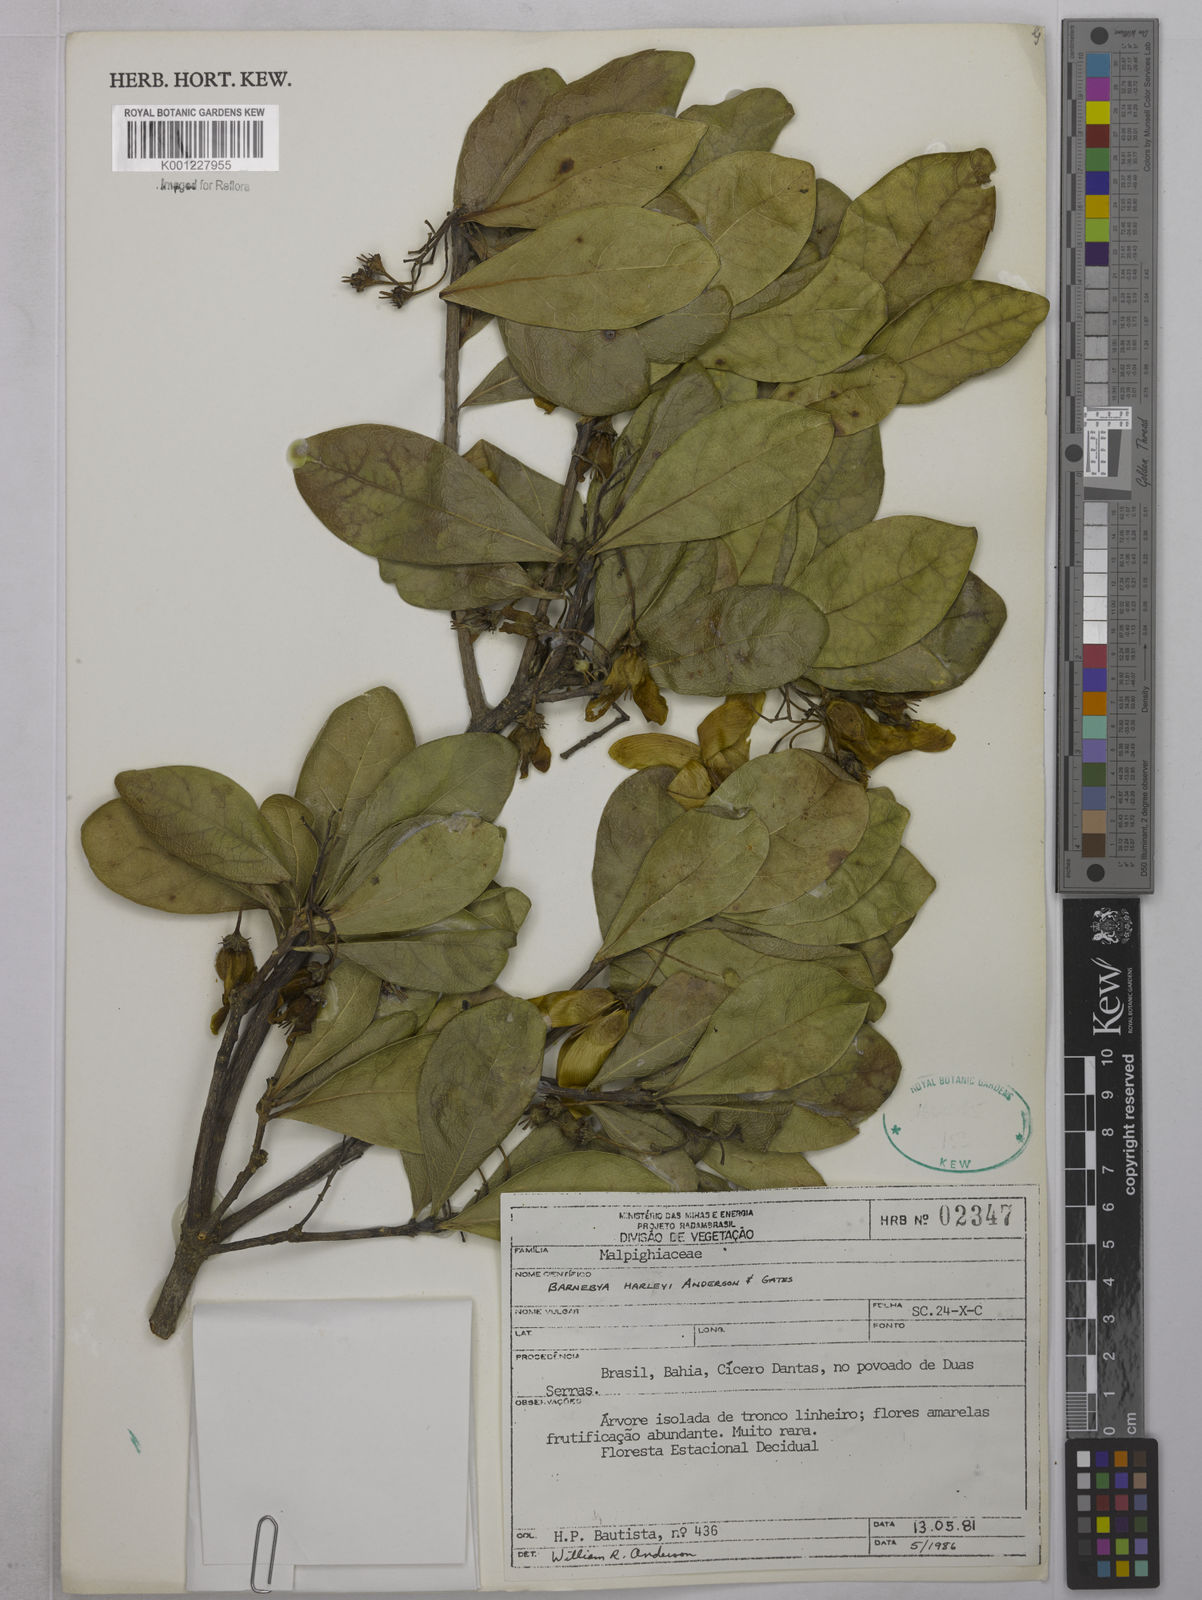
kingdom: Plantae
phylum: Tracheophyta
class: Magnoliopsida
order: Malpighiales
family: Malpighiaceae
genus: Barnebya
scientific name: Barnebya harleyi
